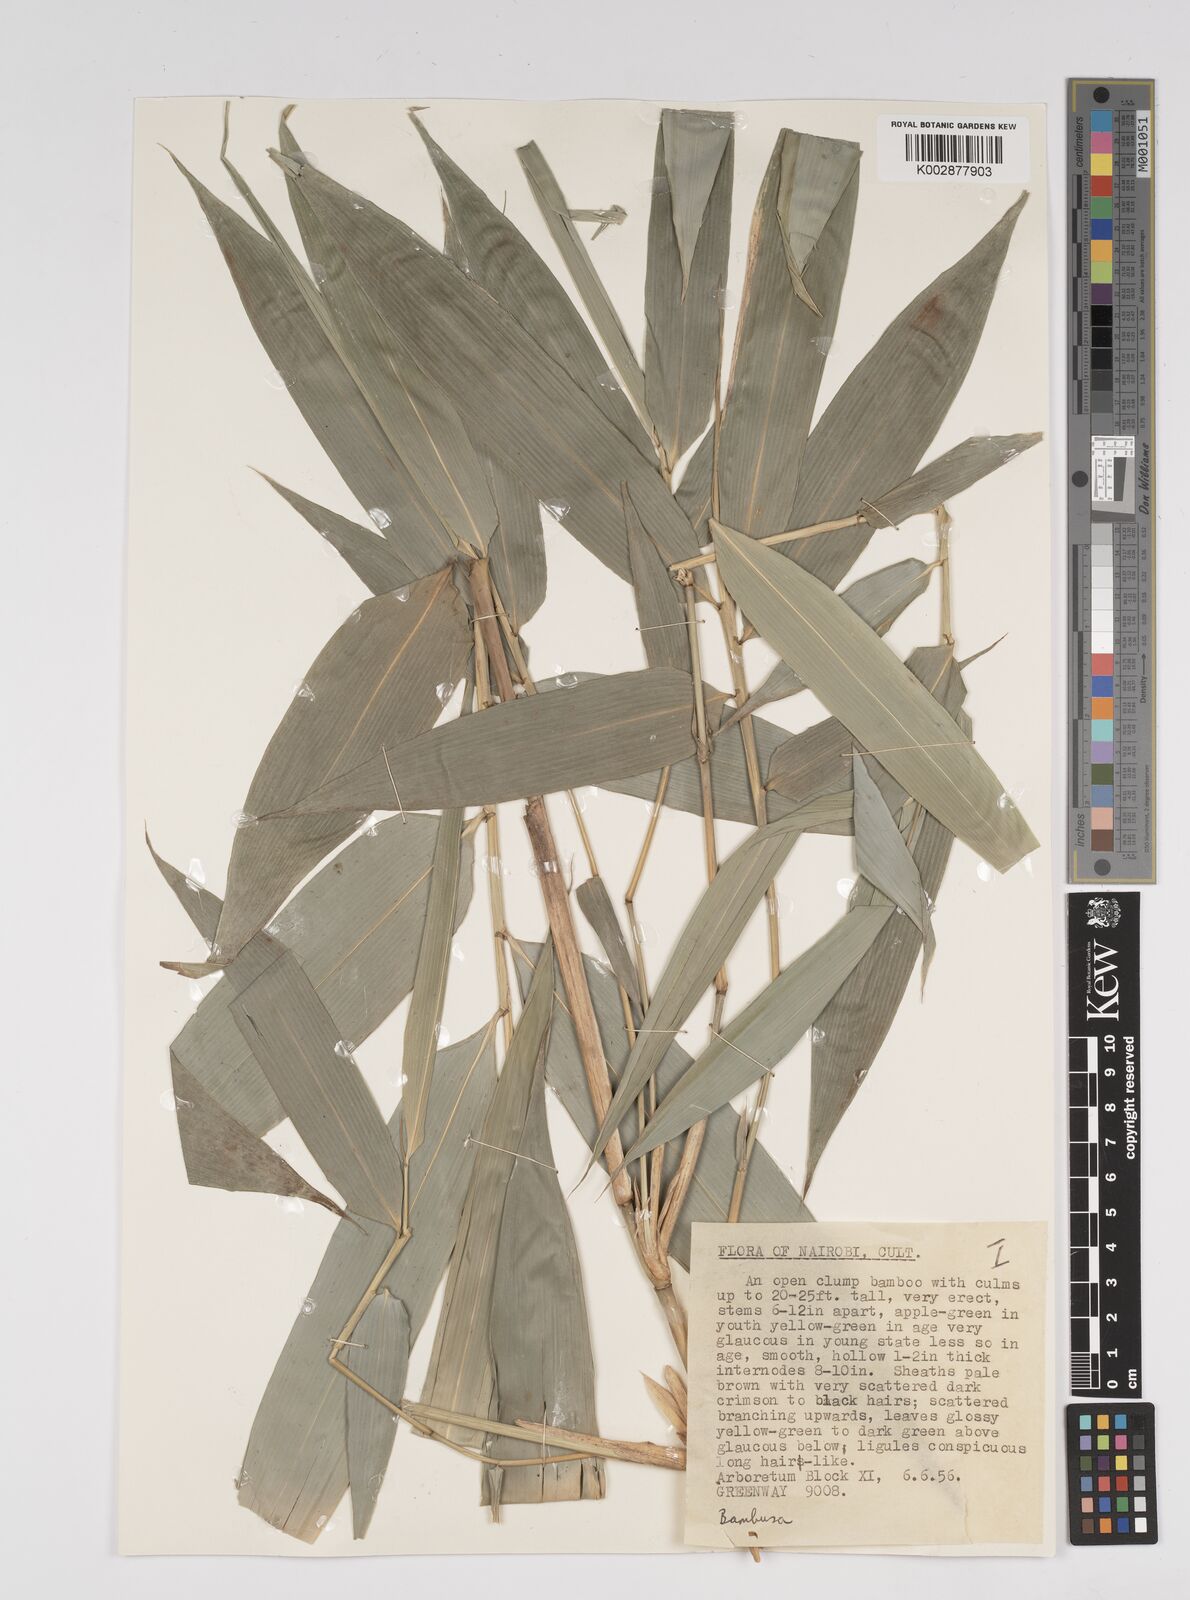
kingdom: Plantae
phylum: Tracheophyta
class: Liliopsida
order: Poales
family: Poaceae
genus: Bambusa
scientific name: Bambusa
